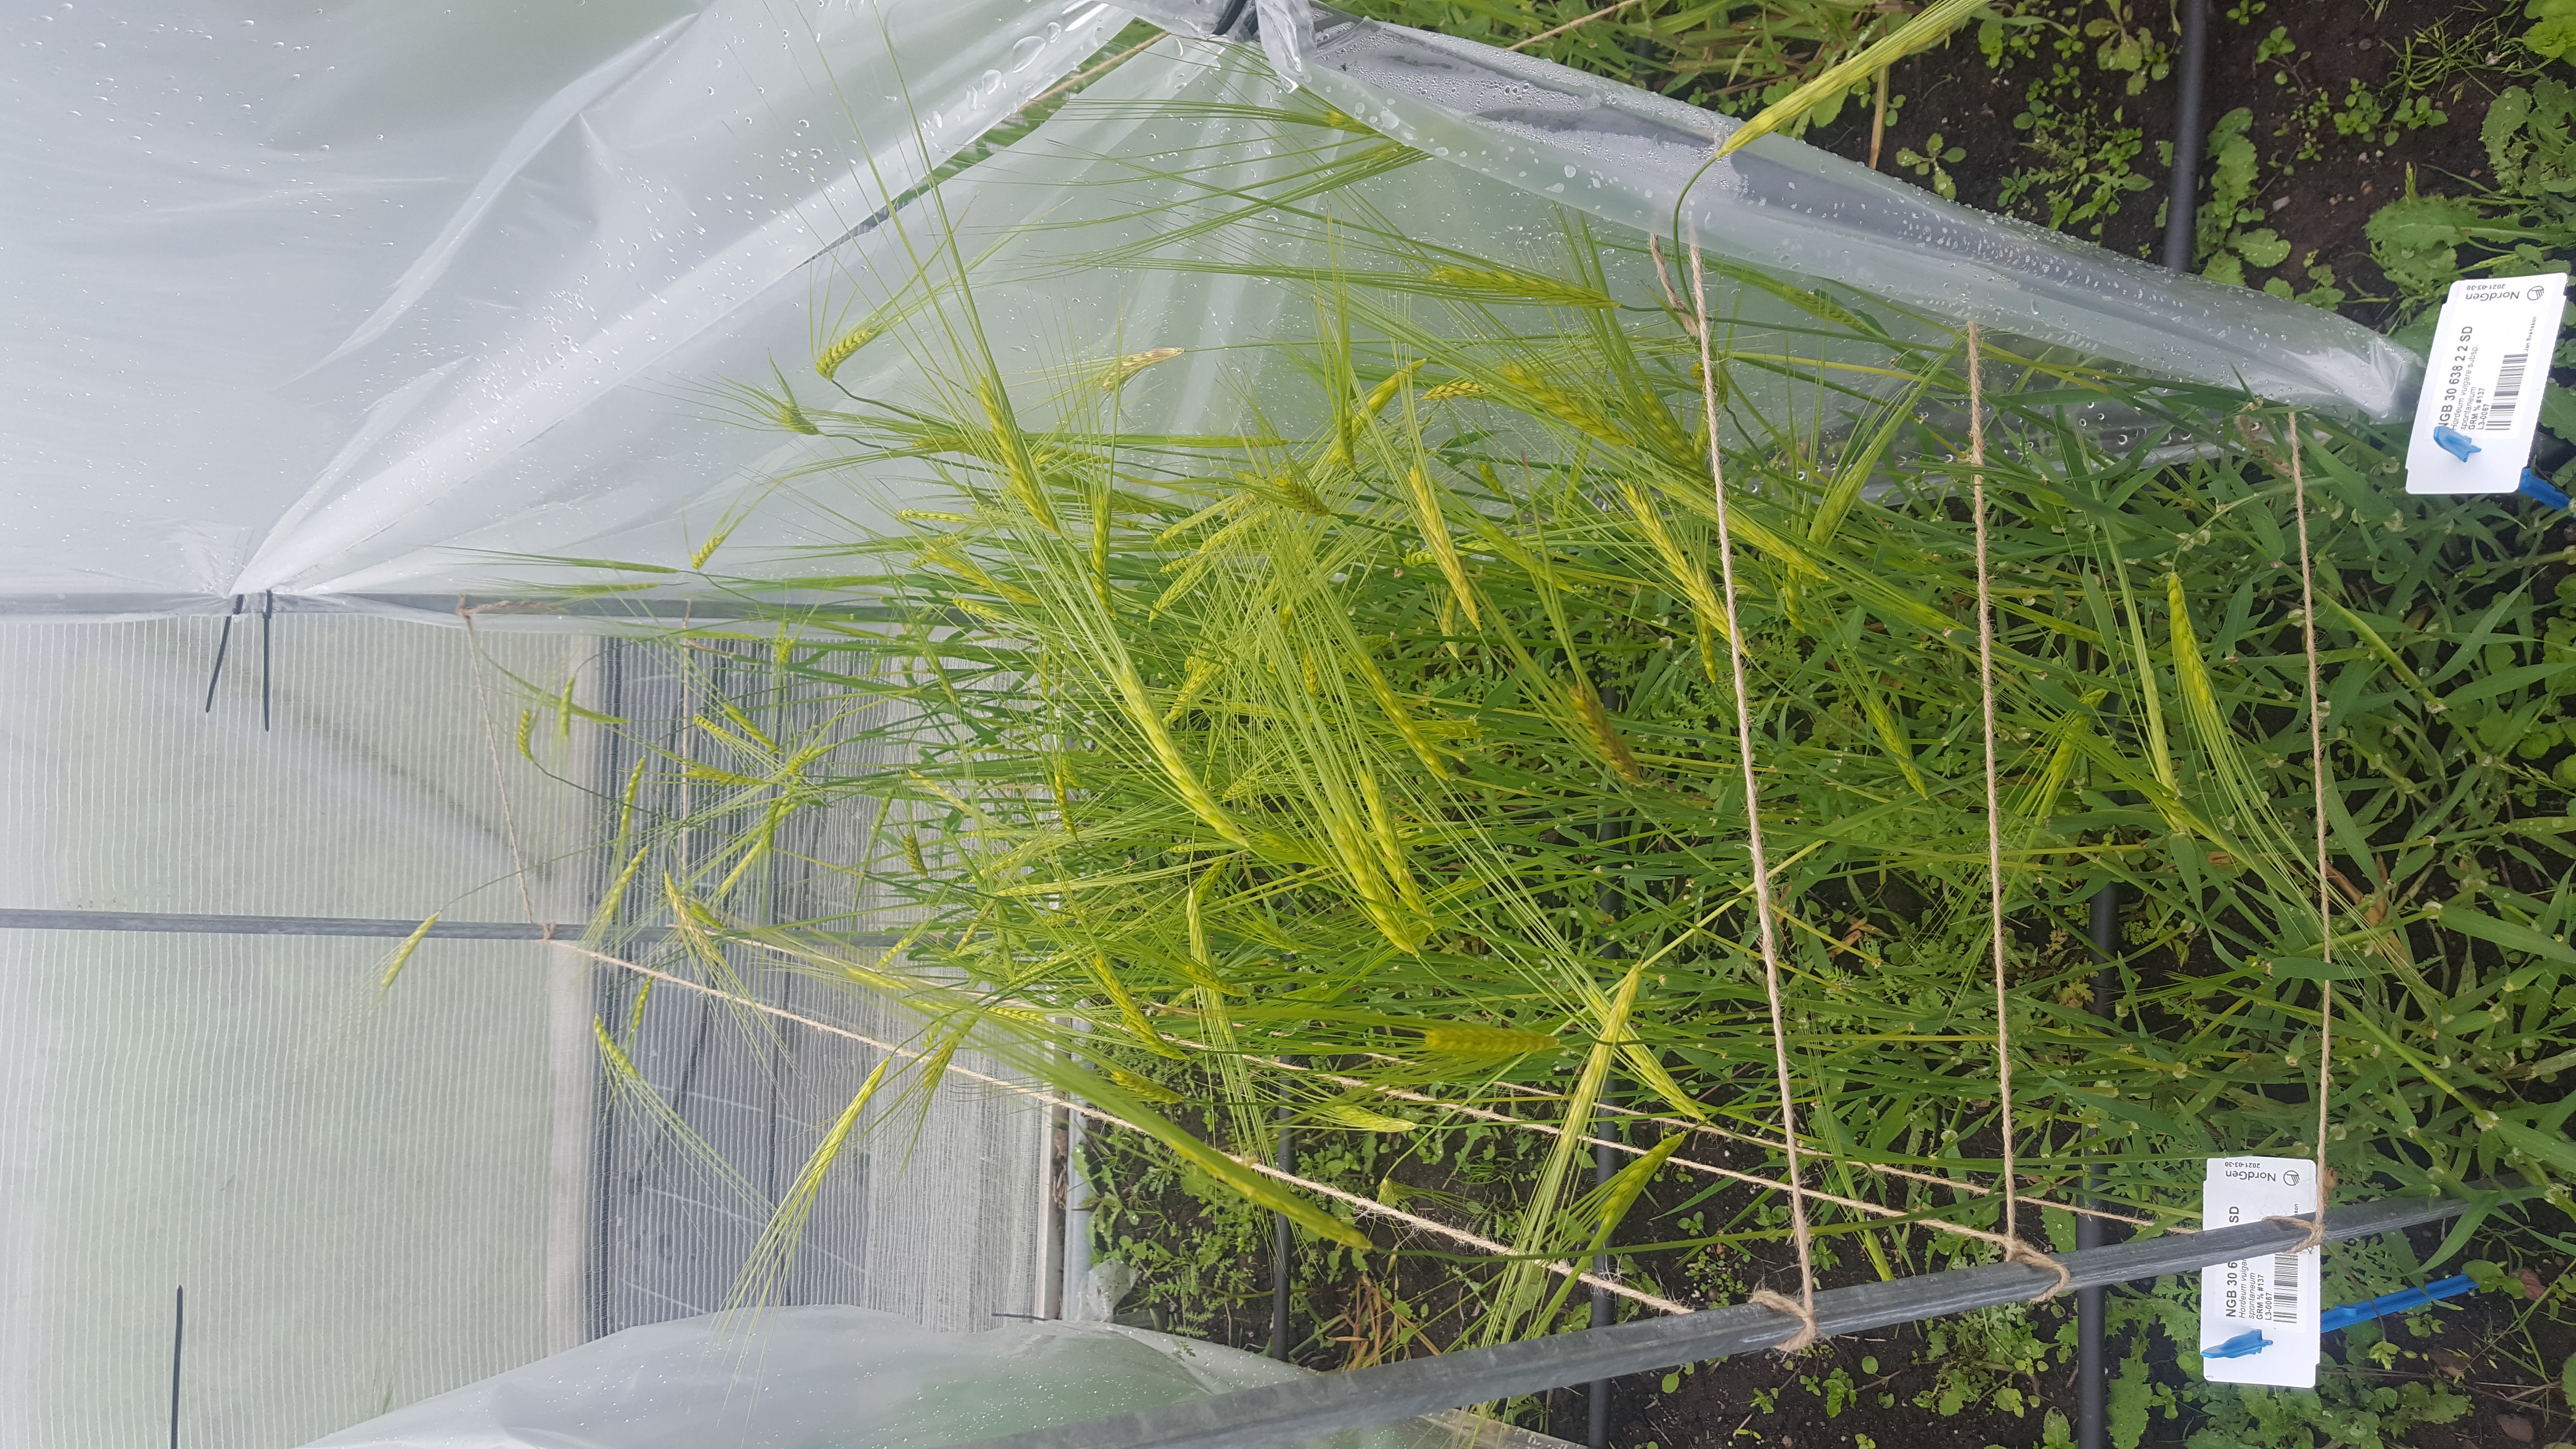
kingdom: Plantae
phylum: Tracheophyta
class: Liliopsida
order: Poales
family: Poaceae
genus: Hordeum
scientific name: Hordeum spontaneum
